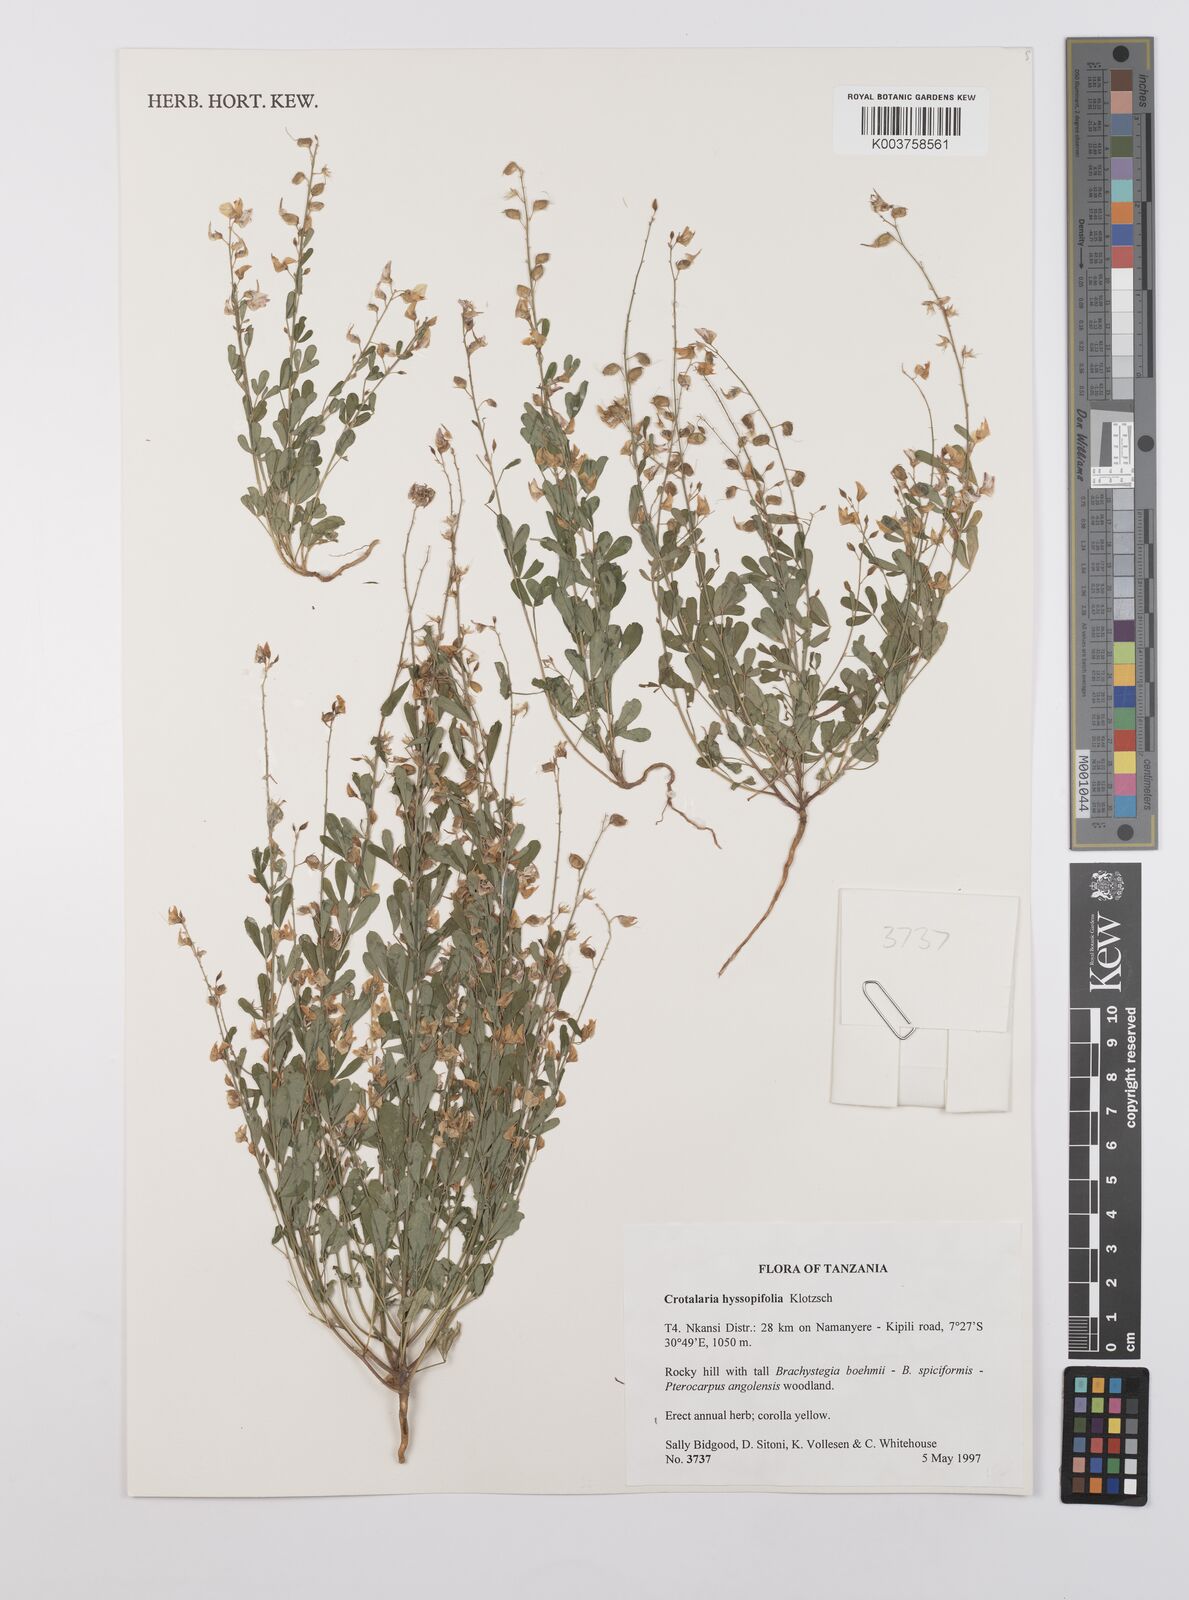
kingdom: Plantae
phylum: Tracheophyta
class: Magnoliopsida
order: Fabales
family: Fabaceae
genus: Crotalaria
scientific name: Crotalaria hyssopifolia
